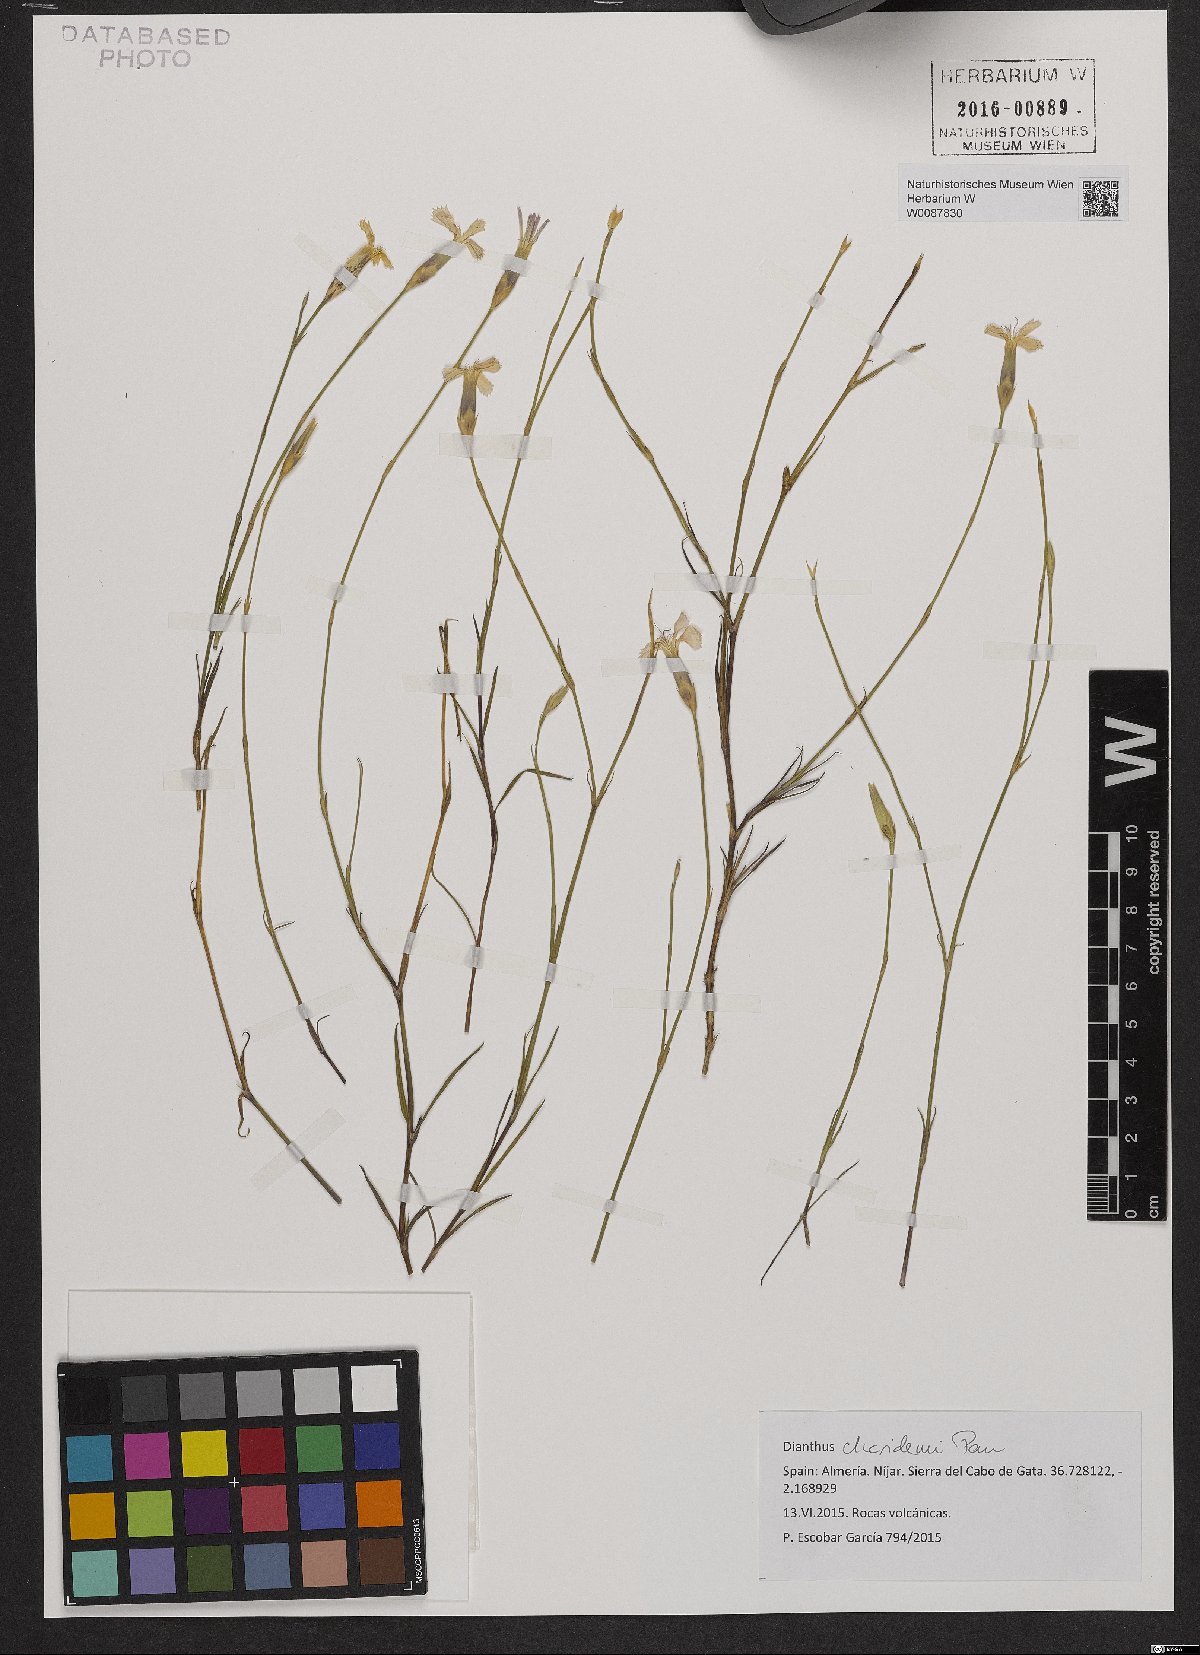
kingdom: Plantae
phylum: Tracheophyta
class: Magnoliopsida
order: Caryophyllales
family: Caryophyllaceae
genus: Dianthus
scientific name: Dianthus charidemi
